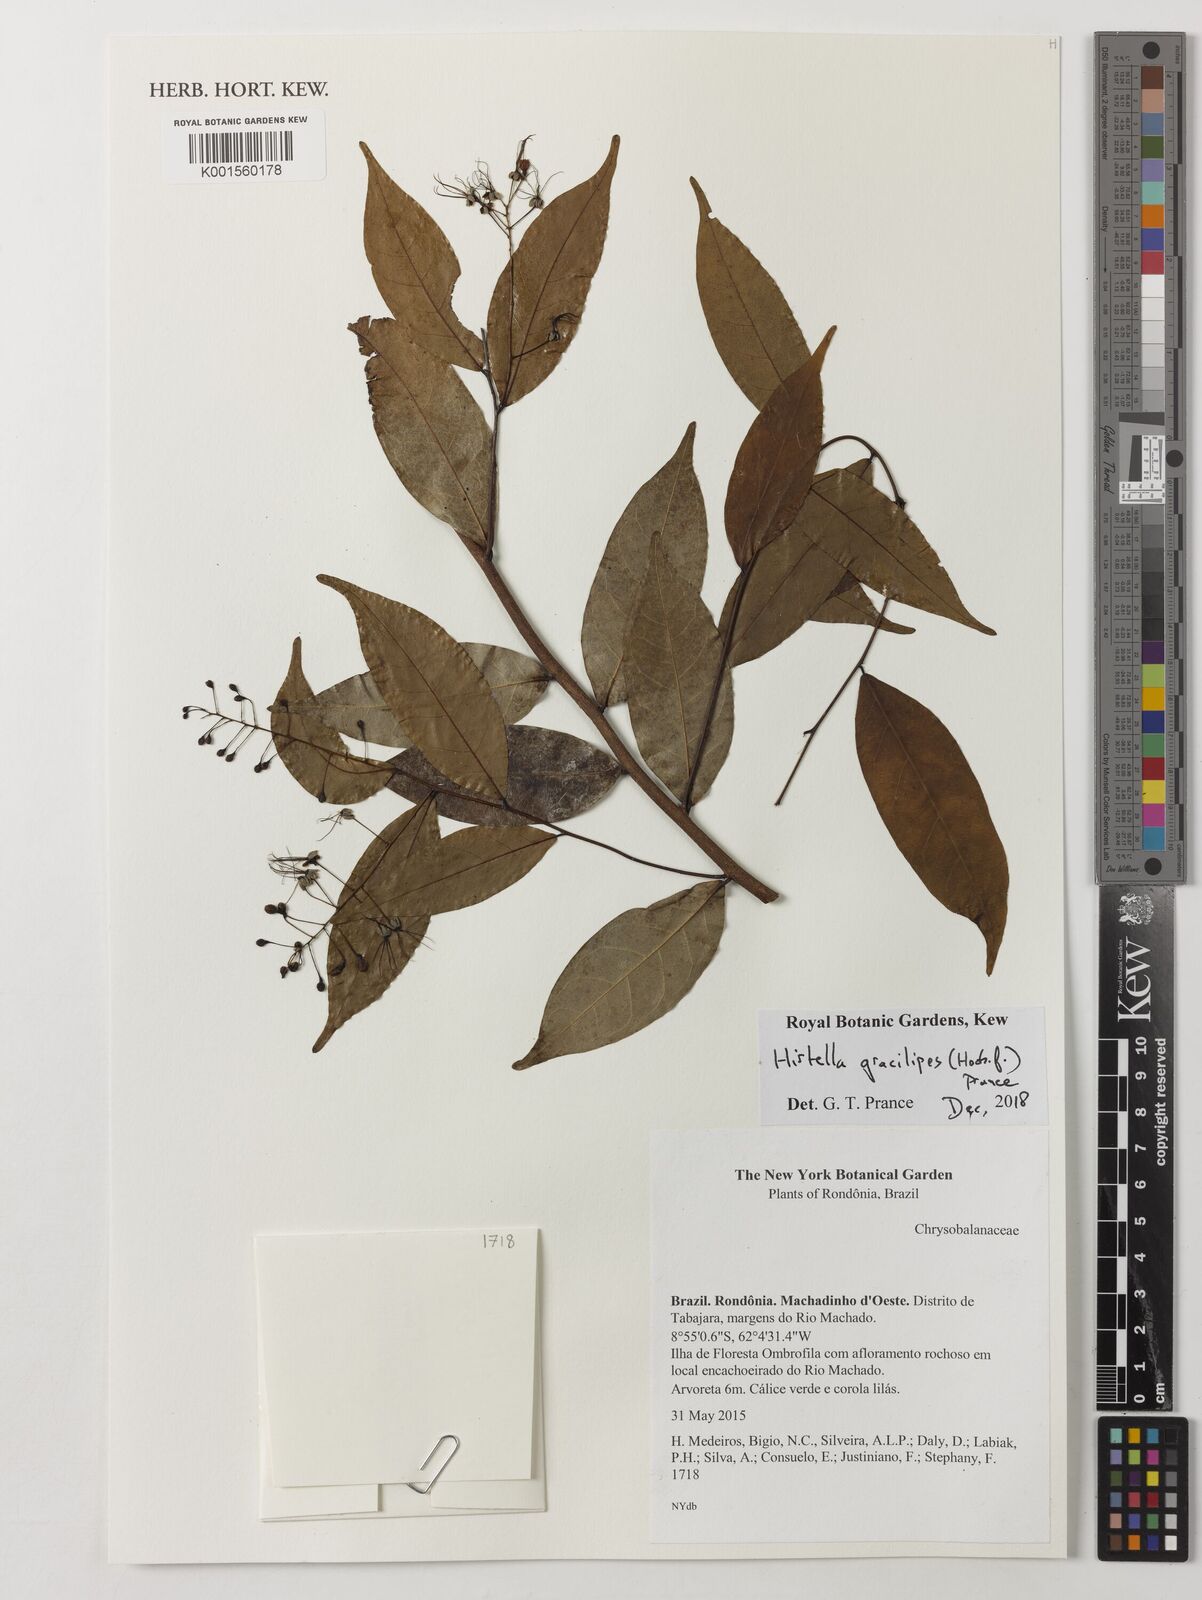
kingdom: Plantae
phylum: Tracheophyta
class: Magnoliopsida
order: Malpighiales
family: Chrysobalanaceae
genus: Hirtella
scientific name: Hirtella gracilipes
